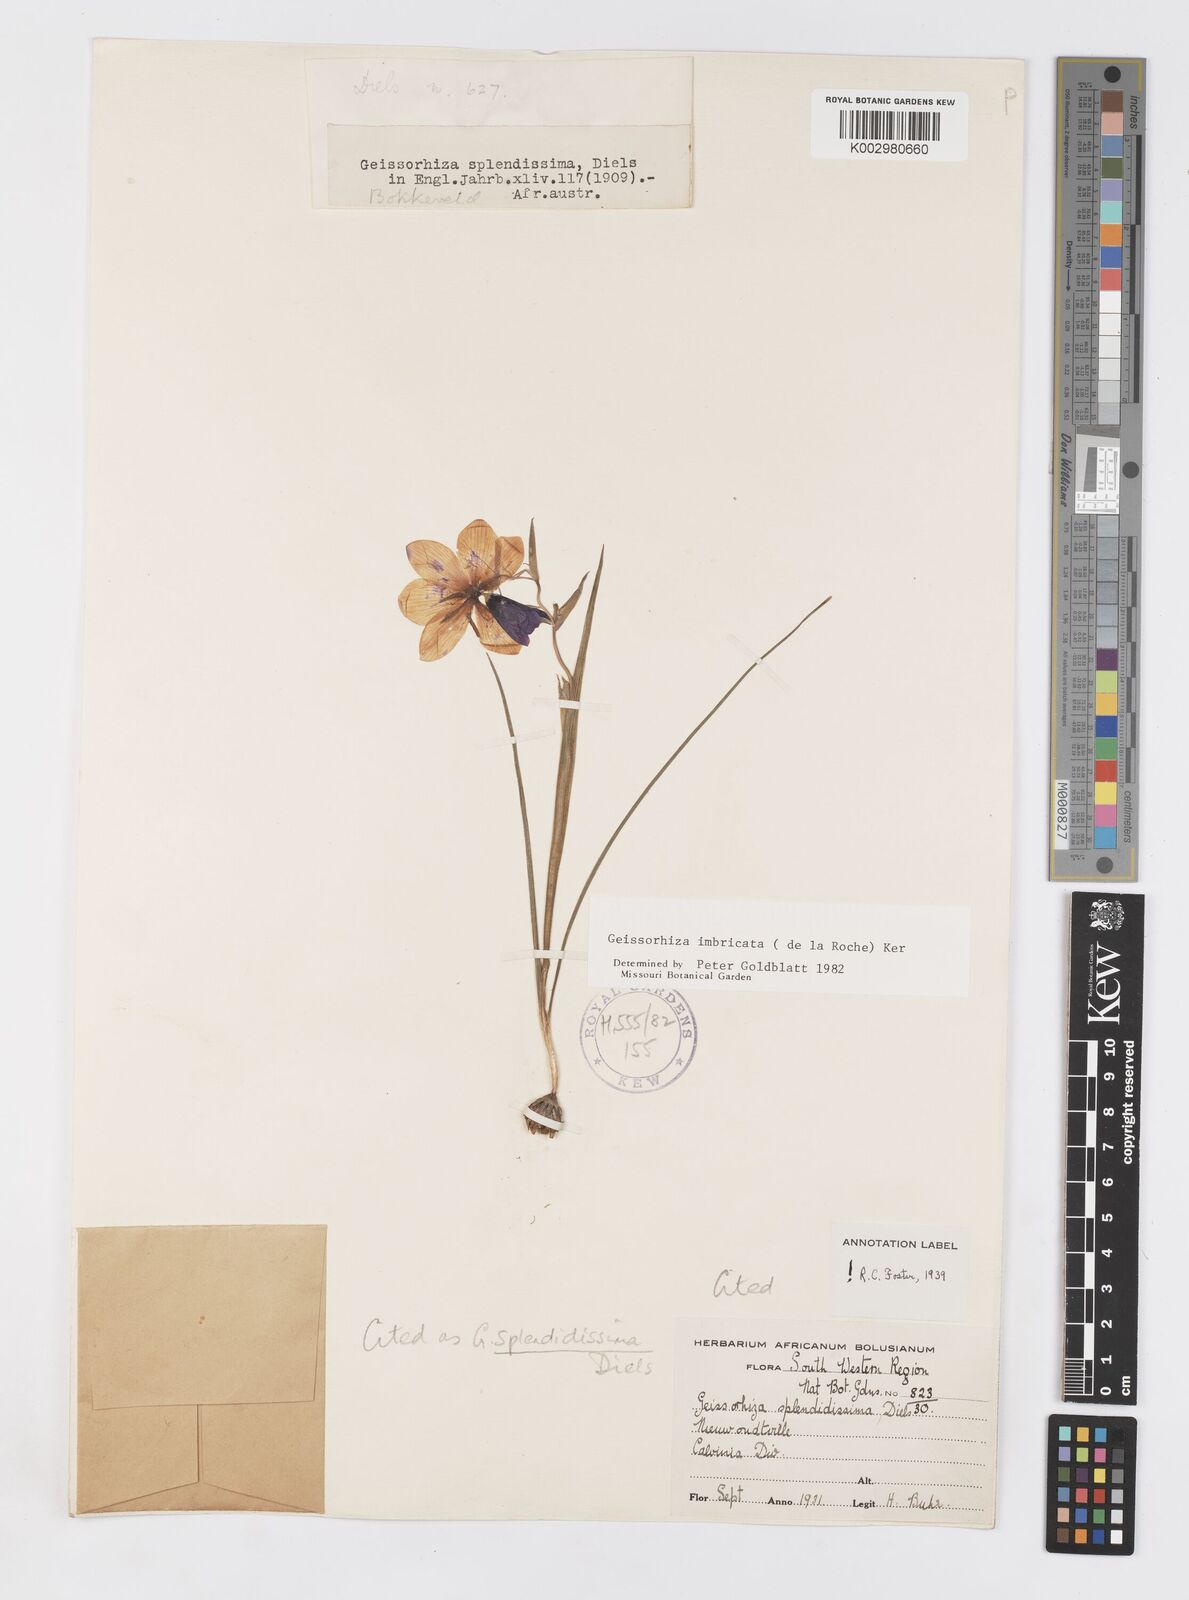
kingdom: Plantae
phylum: Tracheophyta
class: Liliopsida
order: Asparagales
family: Iridaceae
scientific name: Iridaceae
